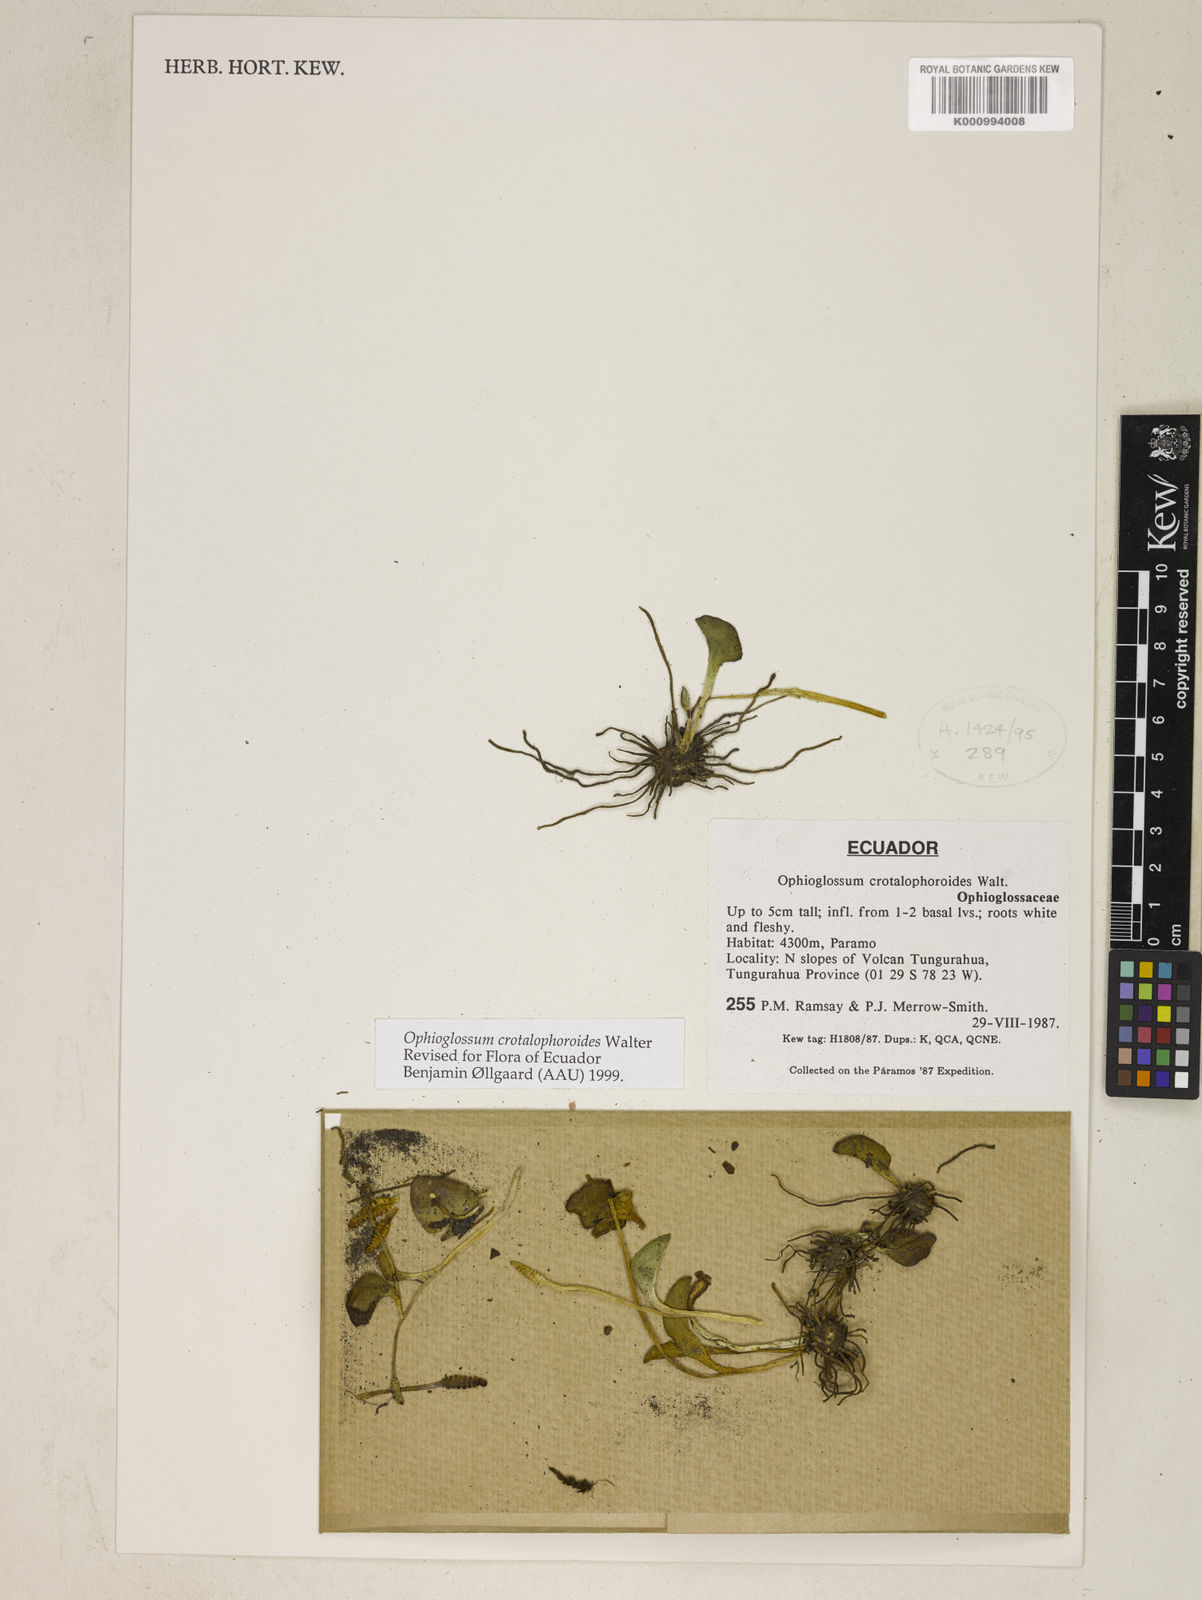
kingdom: Plantae
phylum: Tracheophyta
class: Polypodiopsida
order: Ophioglossales
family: Ophioglossaceae
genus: Ophioglossum
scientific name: Ophioglossum crotalophoroides
